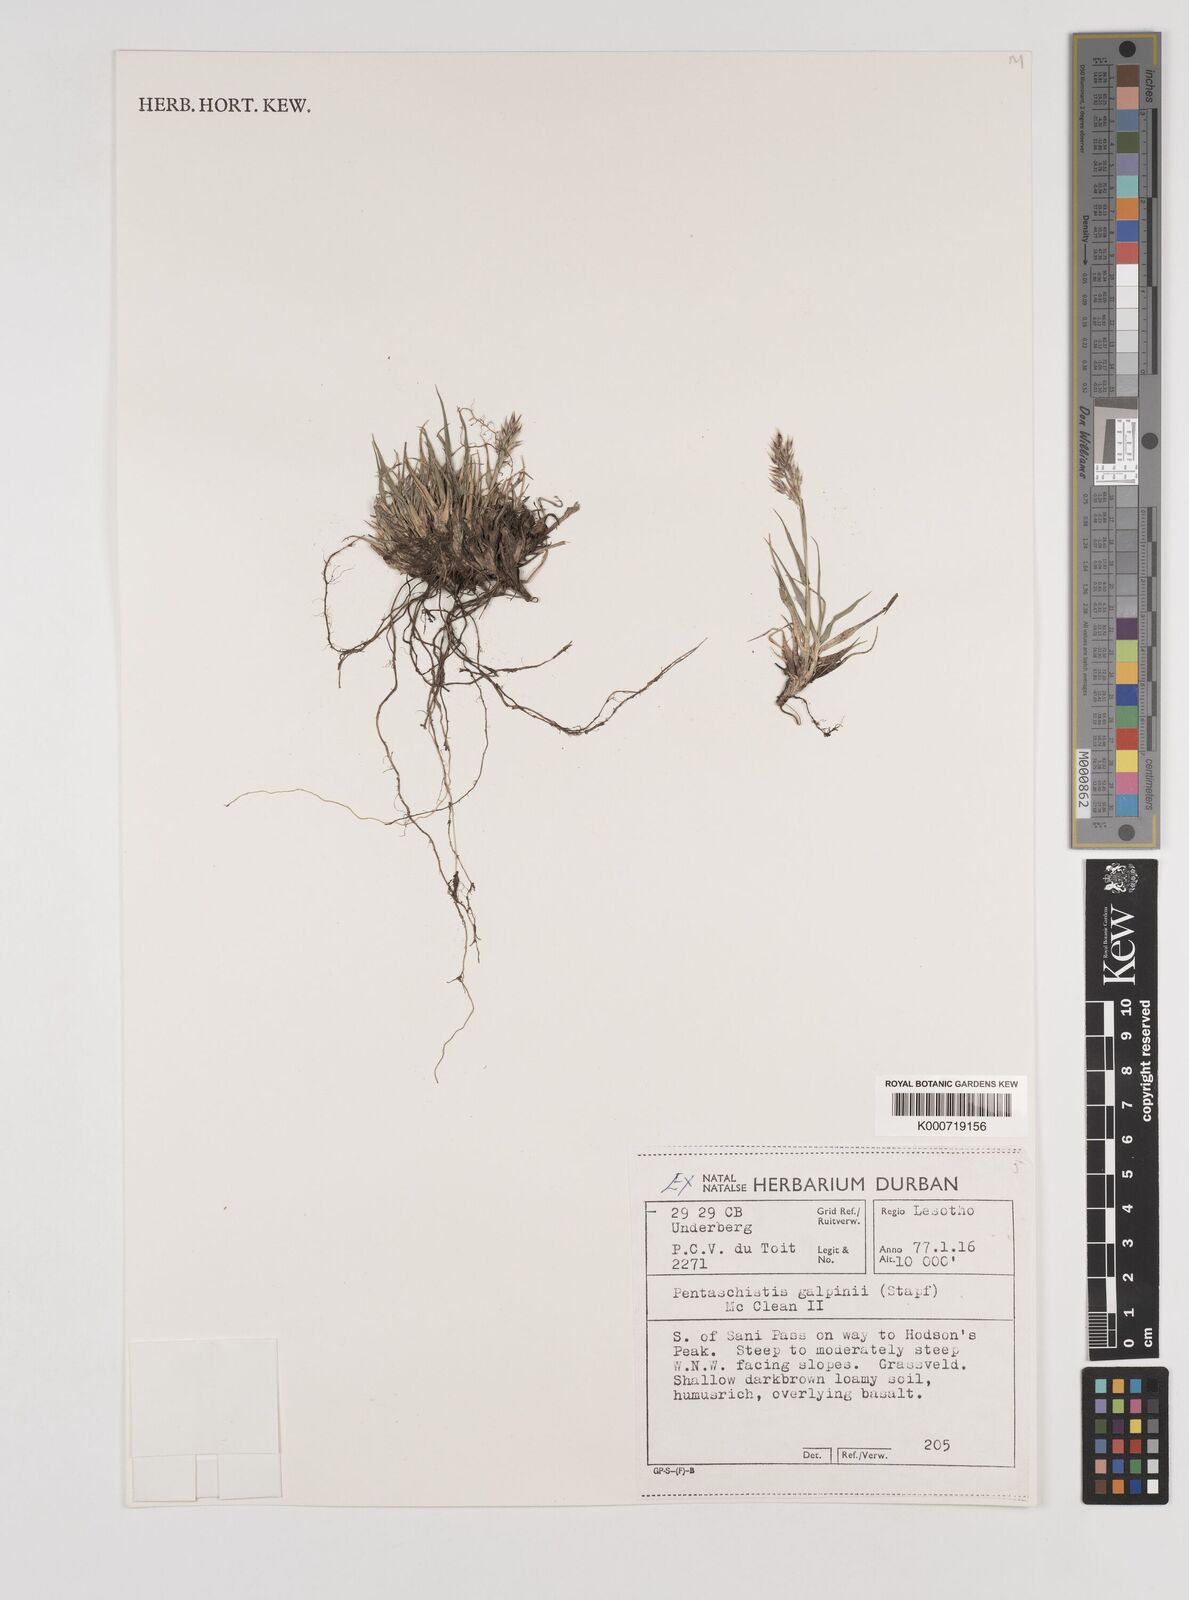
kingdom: Plantae
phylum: Tracheophyta
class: Liliopsida
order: Poales
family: Poaceae
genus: Pentameris
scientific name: Pentameris galpinii
